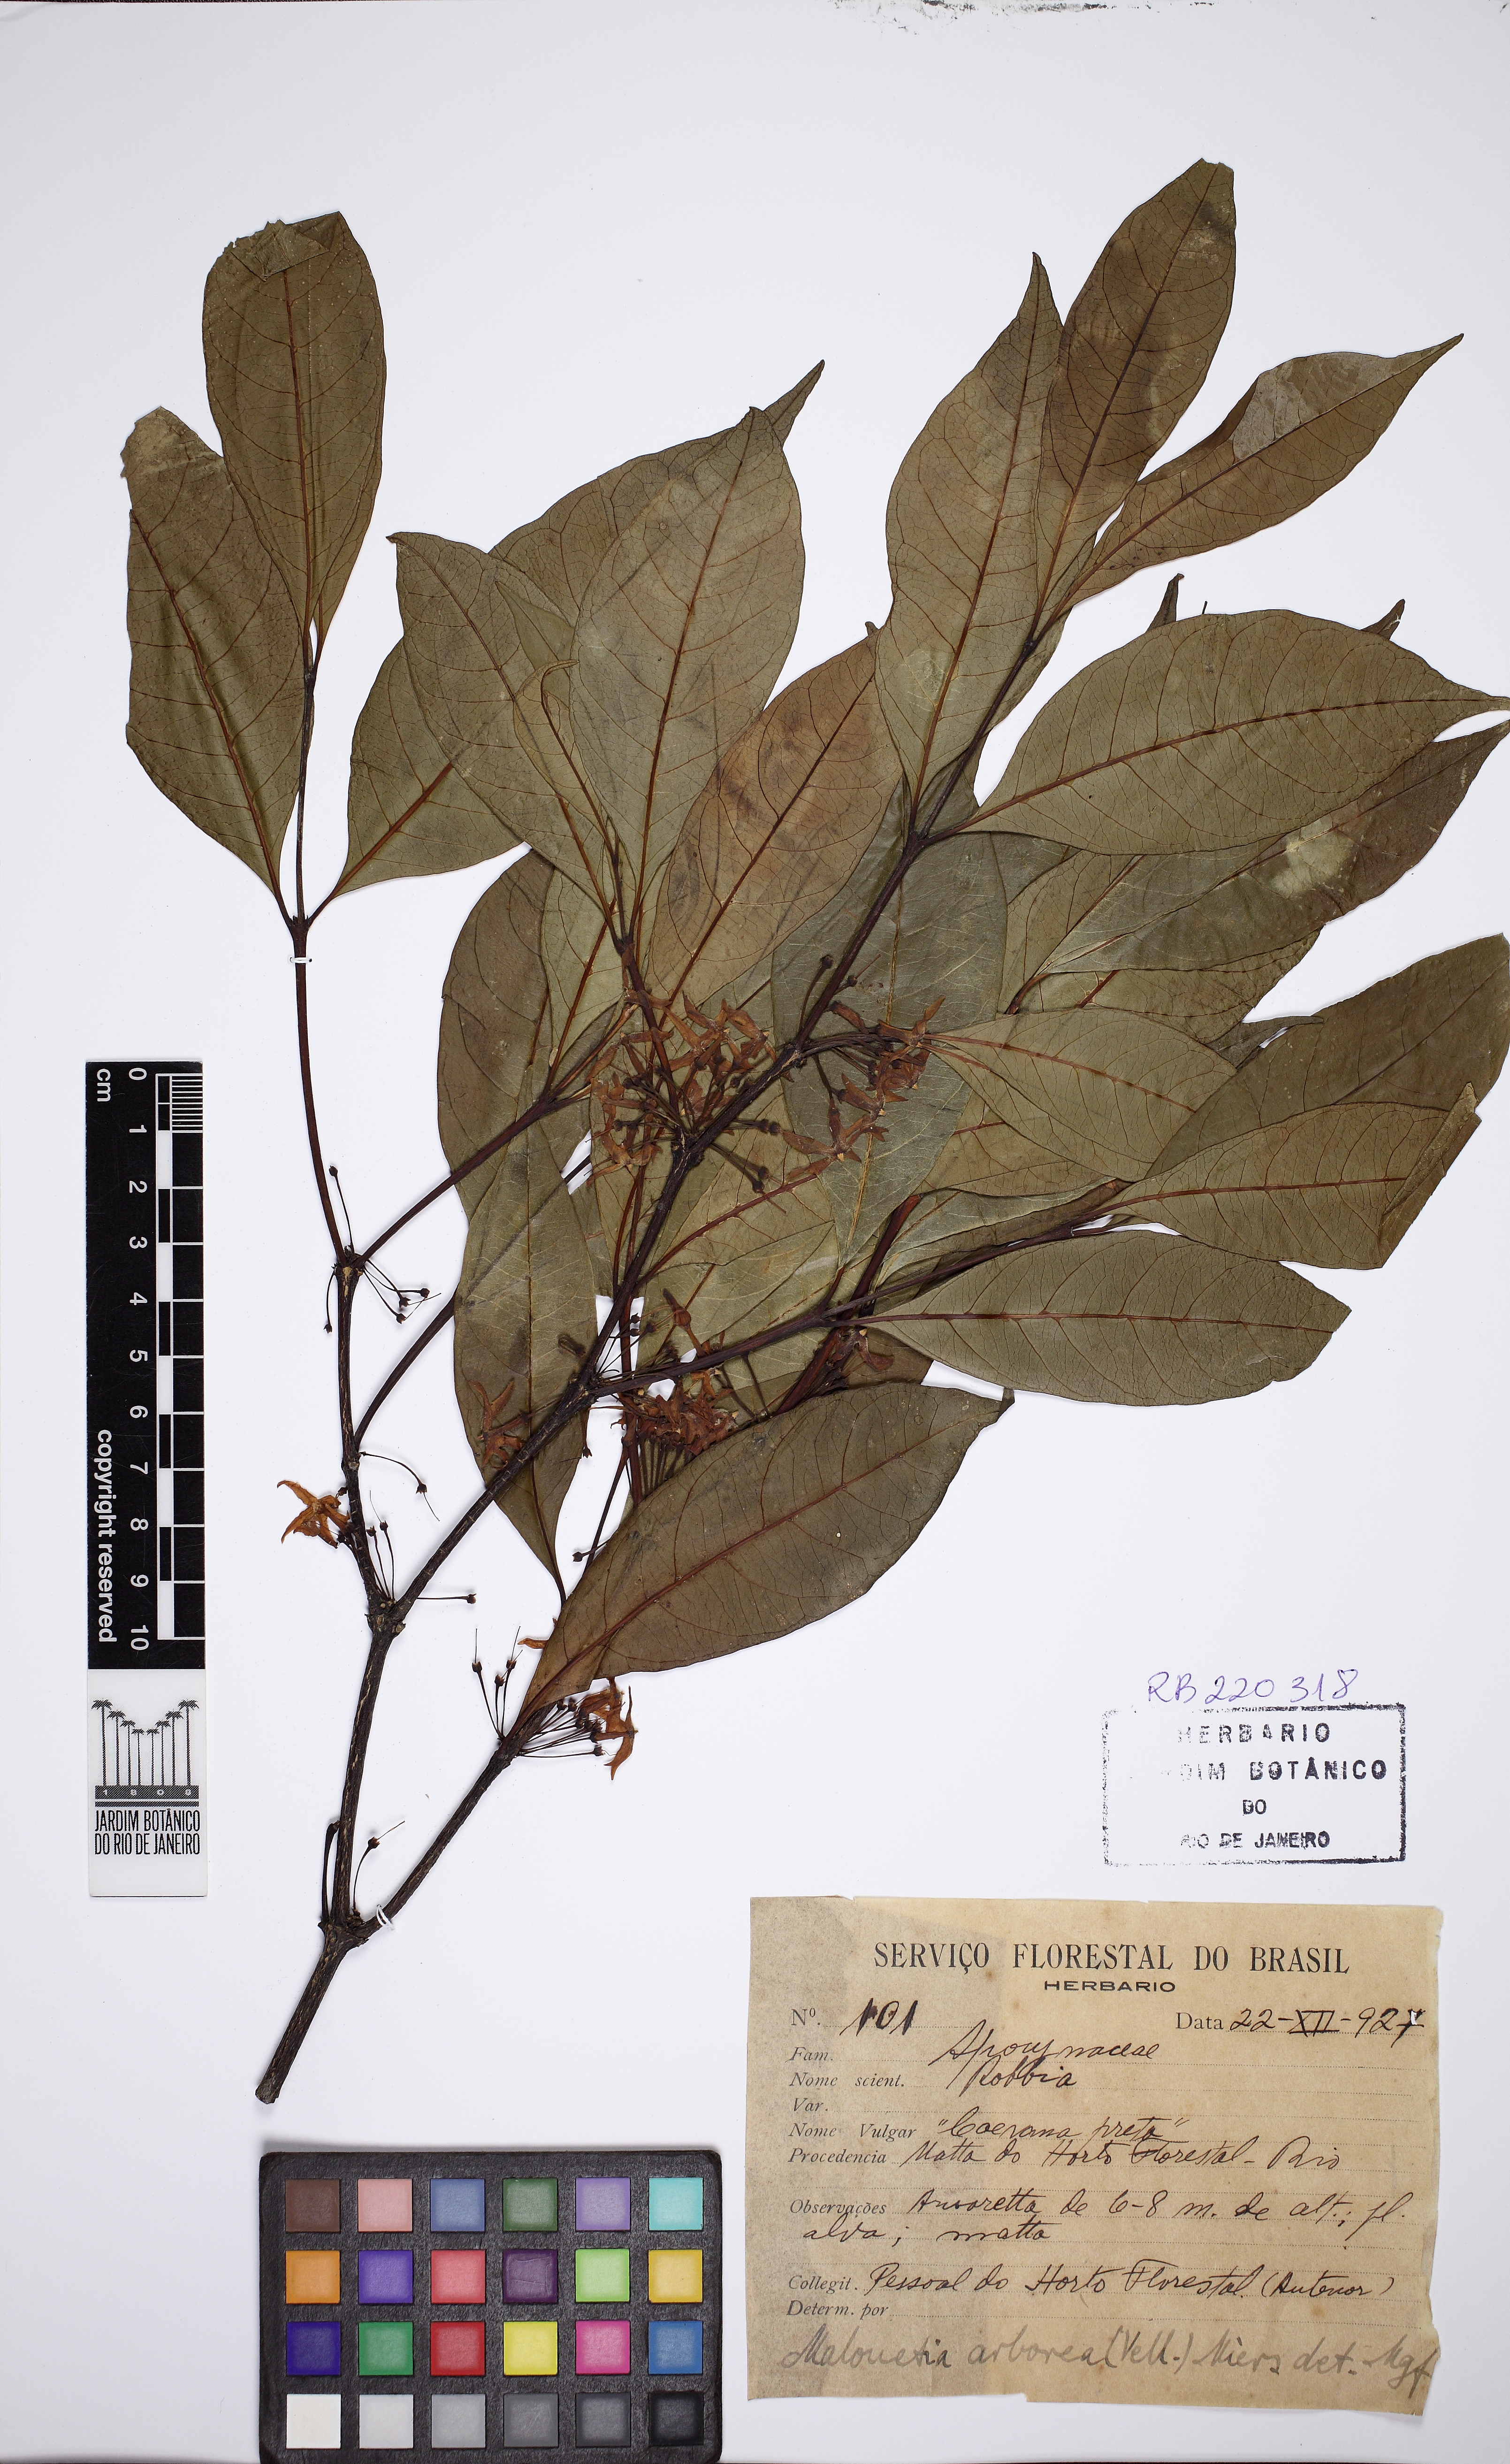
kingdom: Plantae
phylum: Tracheophyta
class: Magnoliopsida
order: Gentianales
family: Apocynaceae
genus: Malouetia
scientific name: Malouetia cestroides
